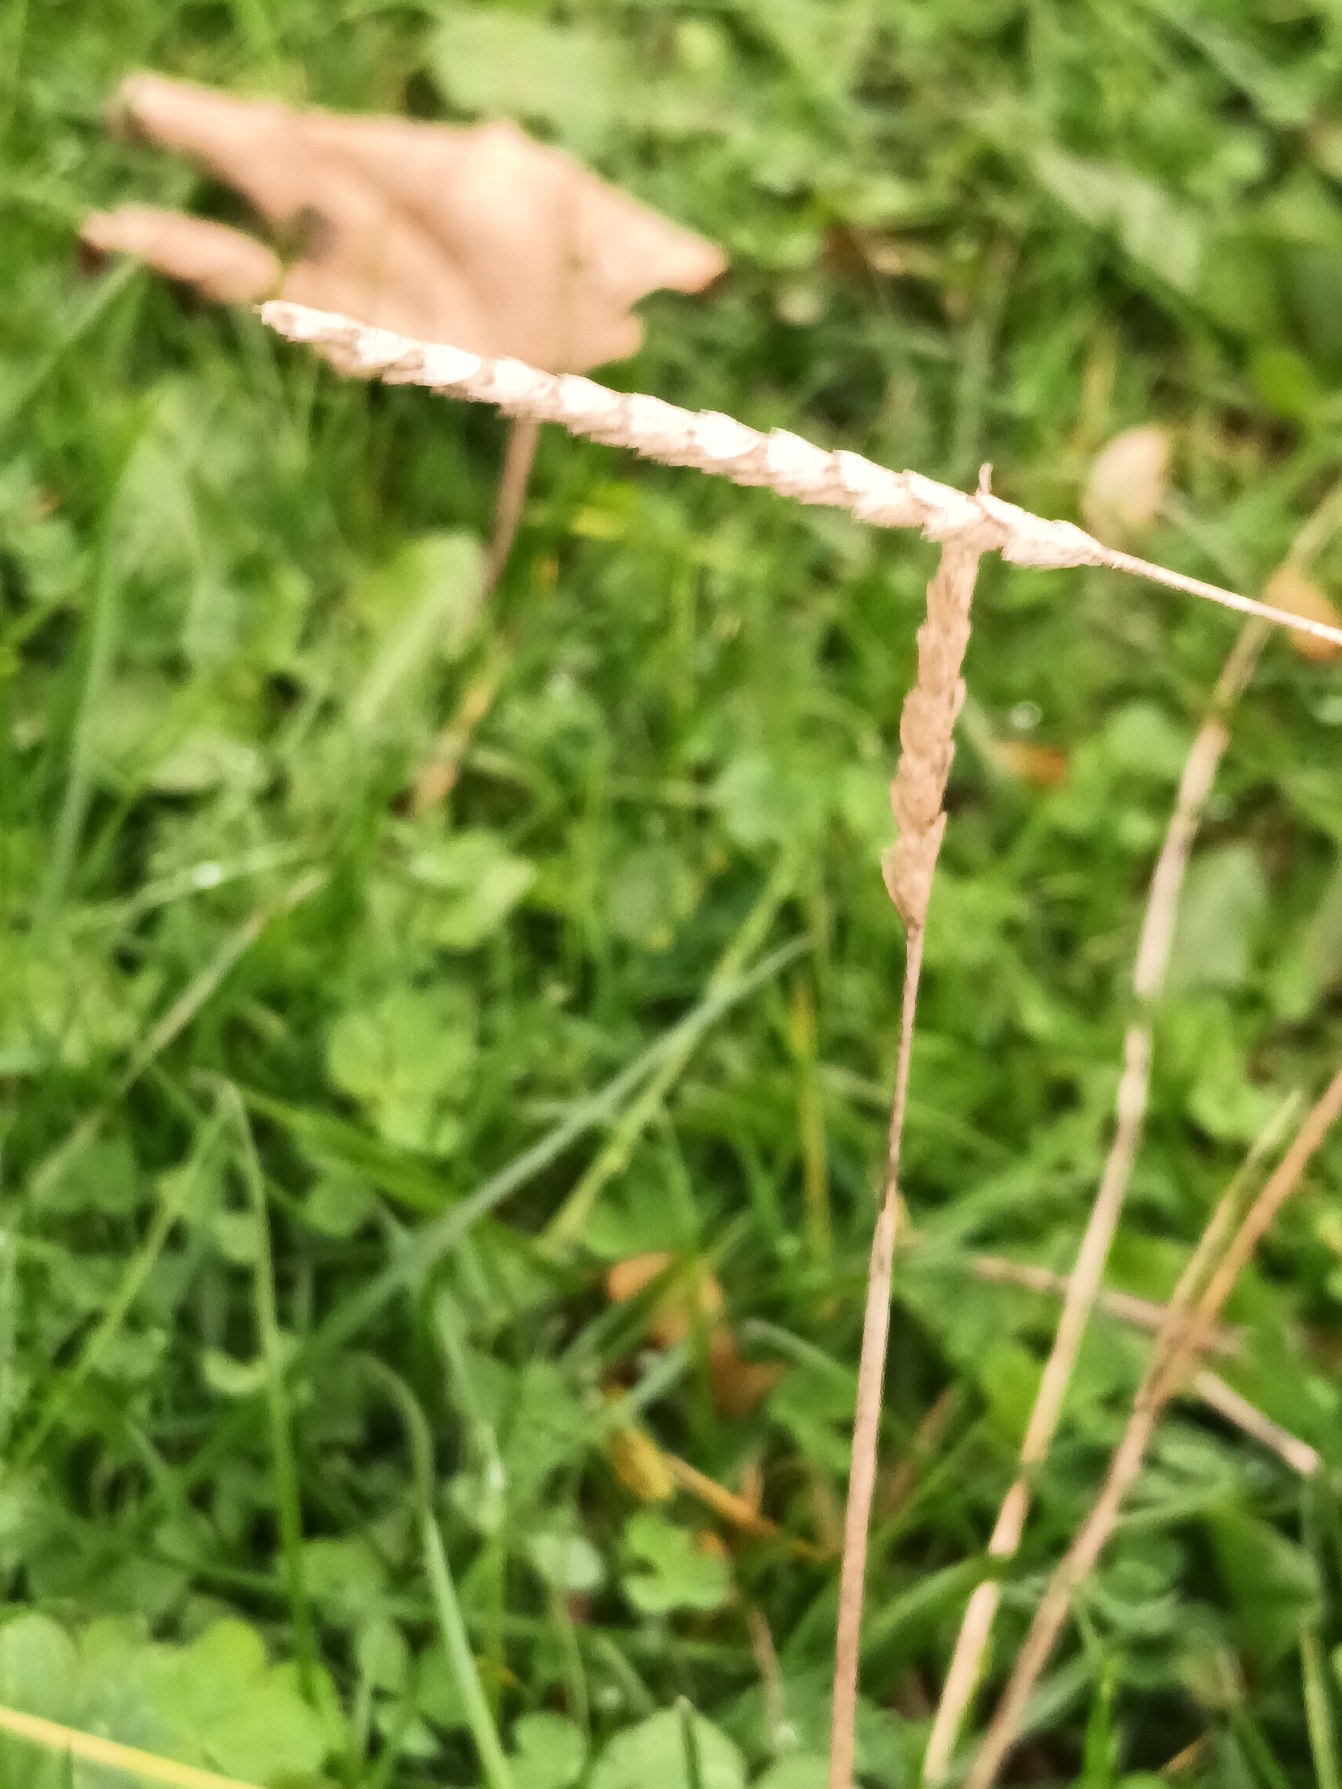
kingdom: Plantae
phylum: Tracheophyta
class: Liliopsida
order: Poales
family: Poaceae
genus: Cynosurus
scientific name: Cynosurus cristatus
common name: Kamgræs
